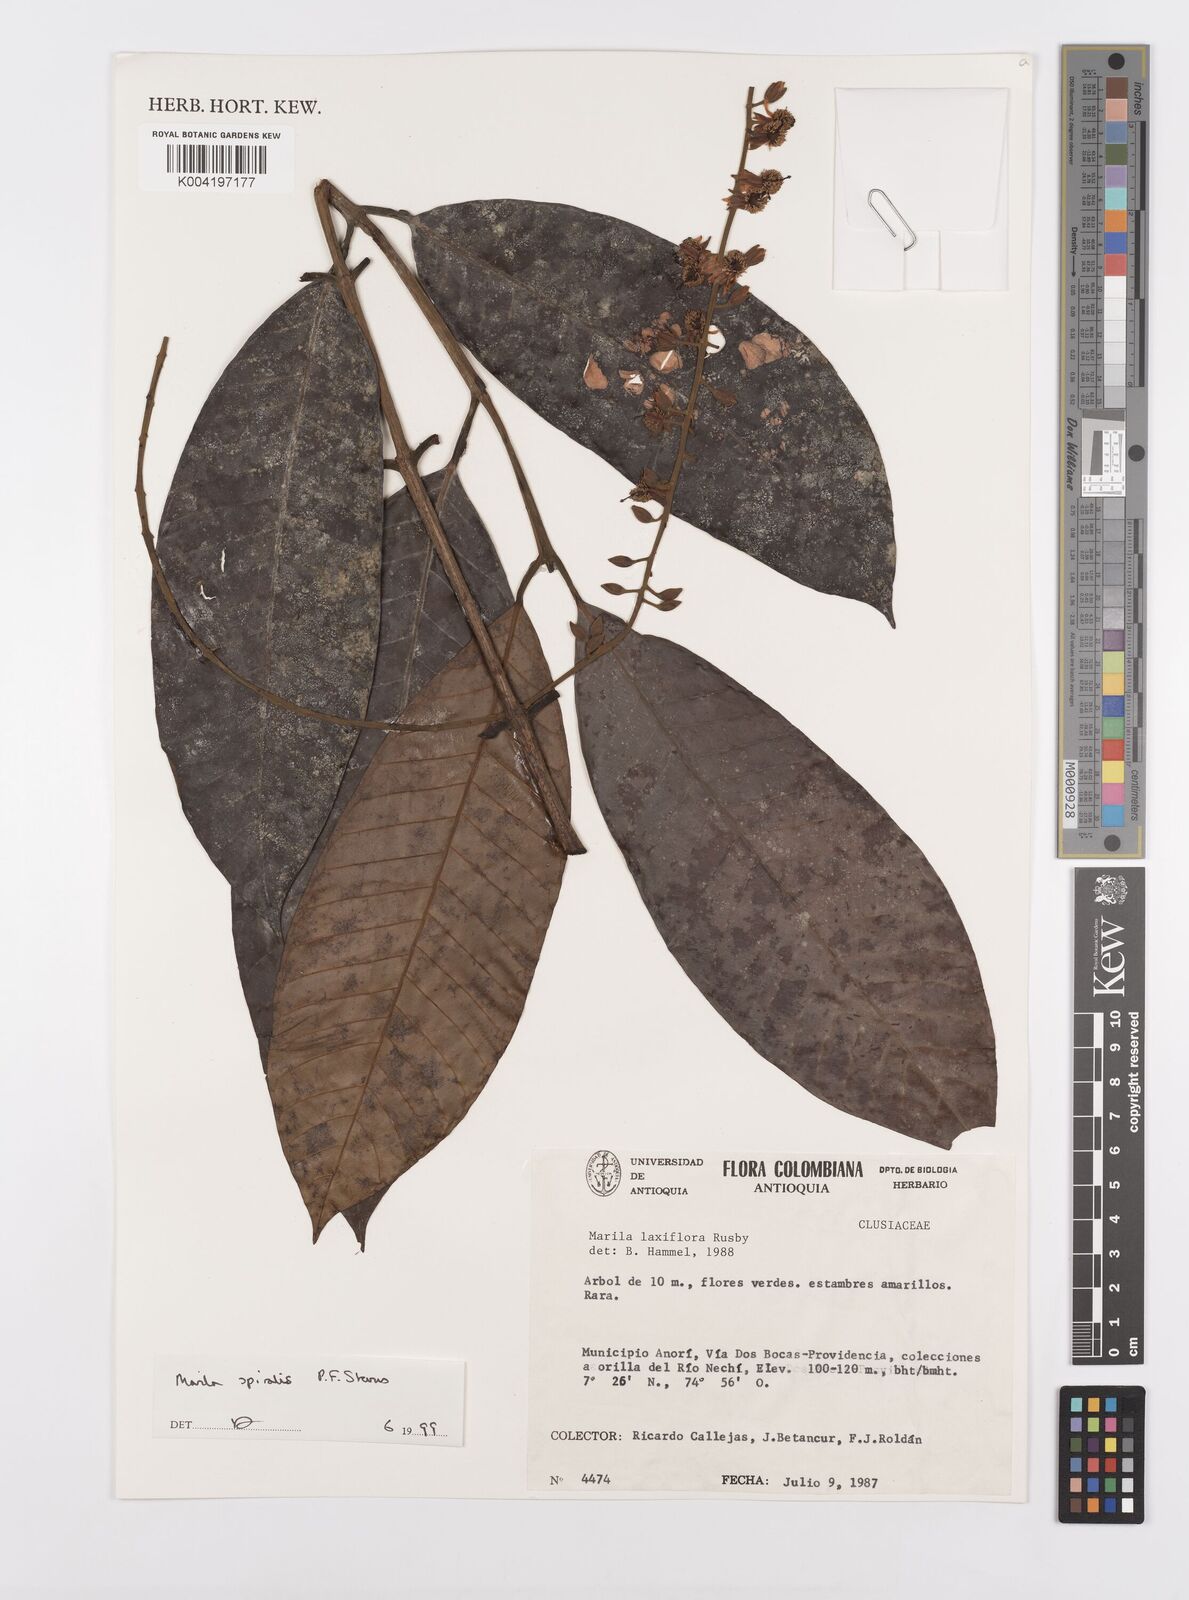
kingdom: Plantae
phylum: Tracheophyta
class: Magnoliopsida
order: Malpighiales
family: Calophyllaceae
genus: Marila
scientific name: Marila
